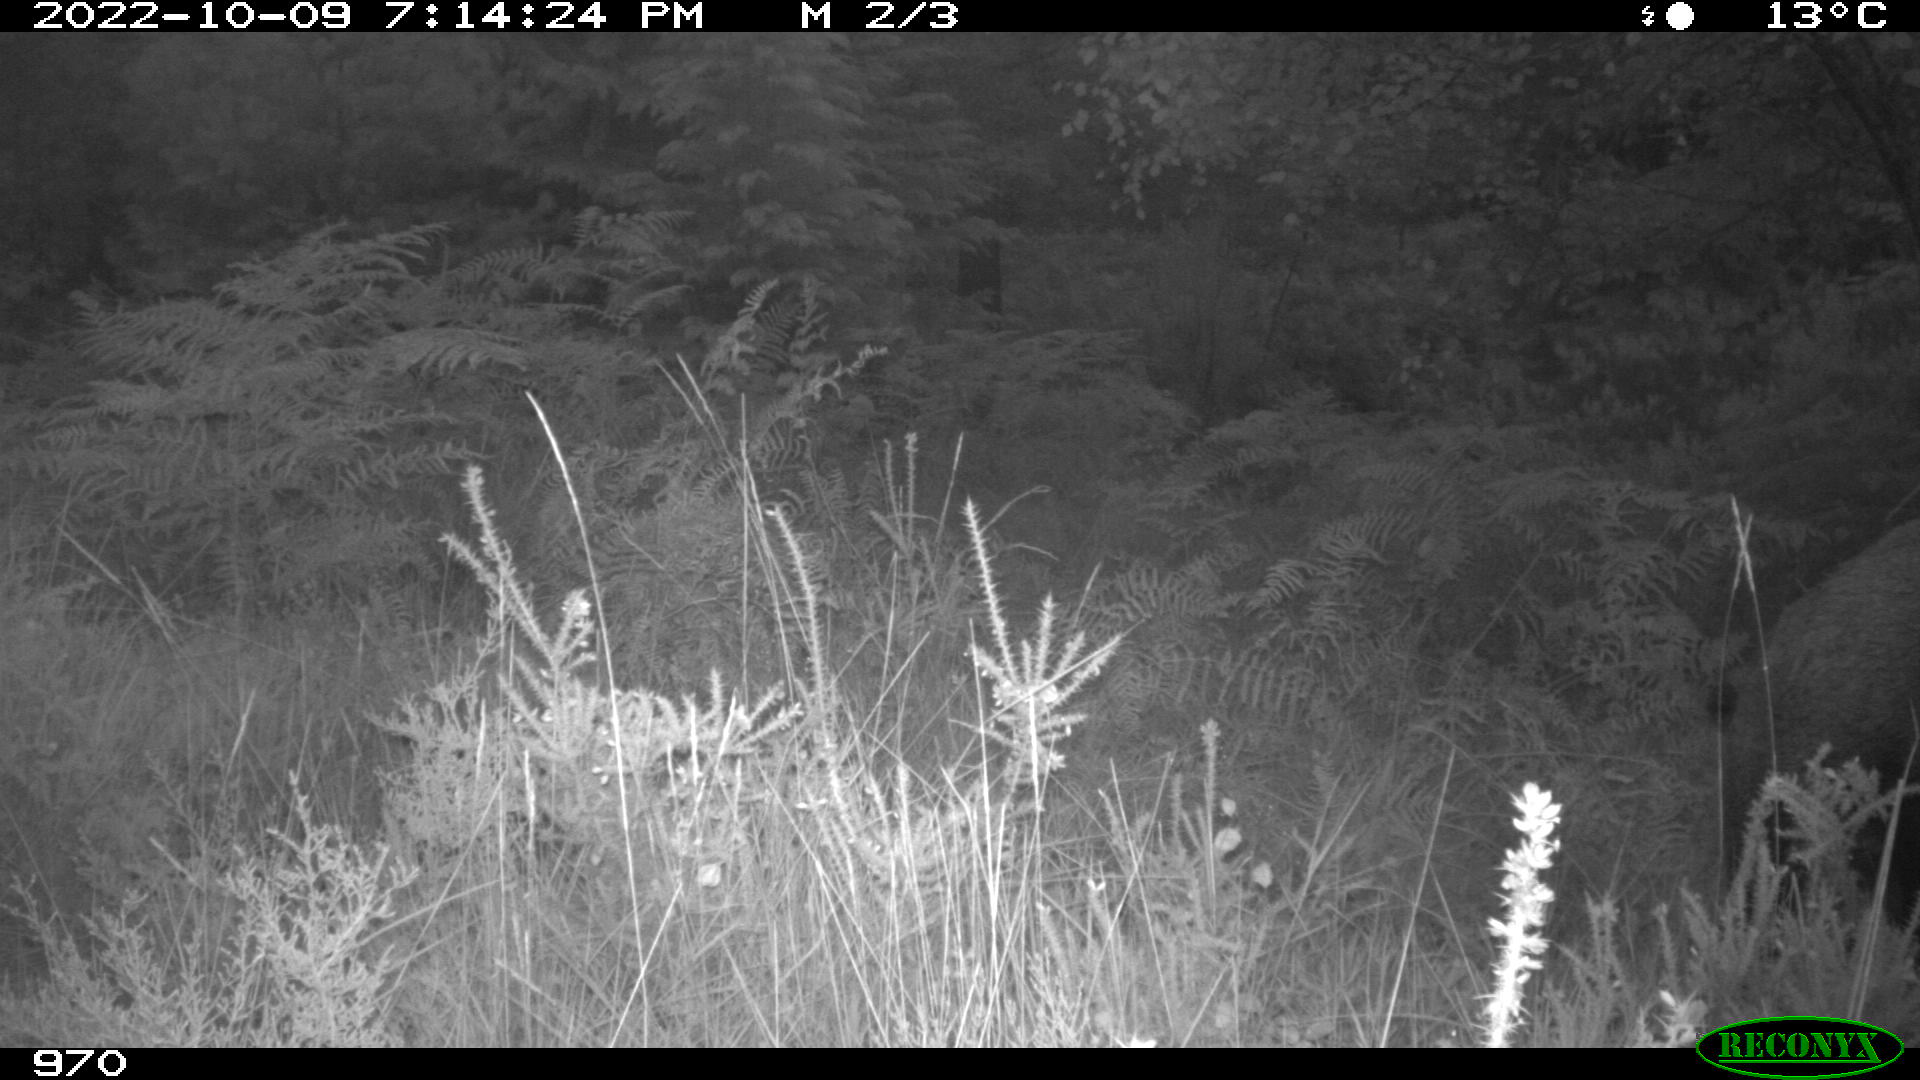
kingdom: Animalia
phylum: Chordata
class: Mammalia
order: Artiodactyla
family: Suidae
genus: Sus
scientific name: Sus scrofa
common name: Wild boar
